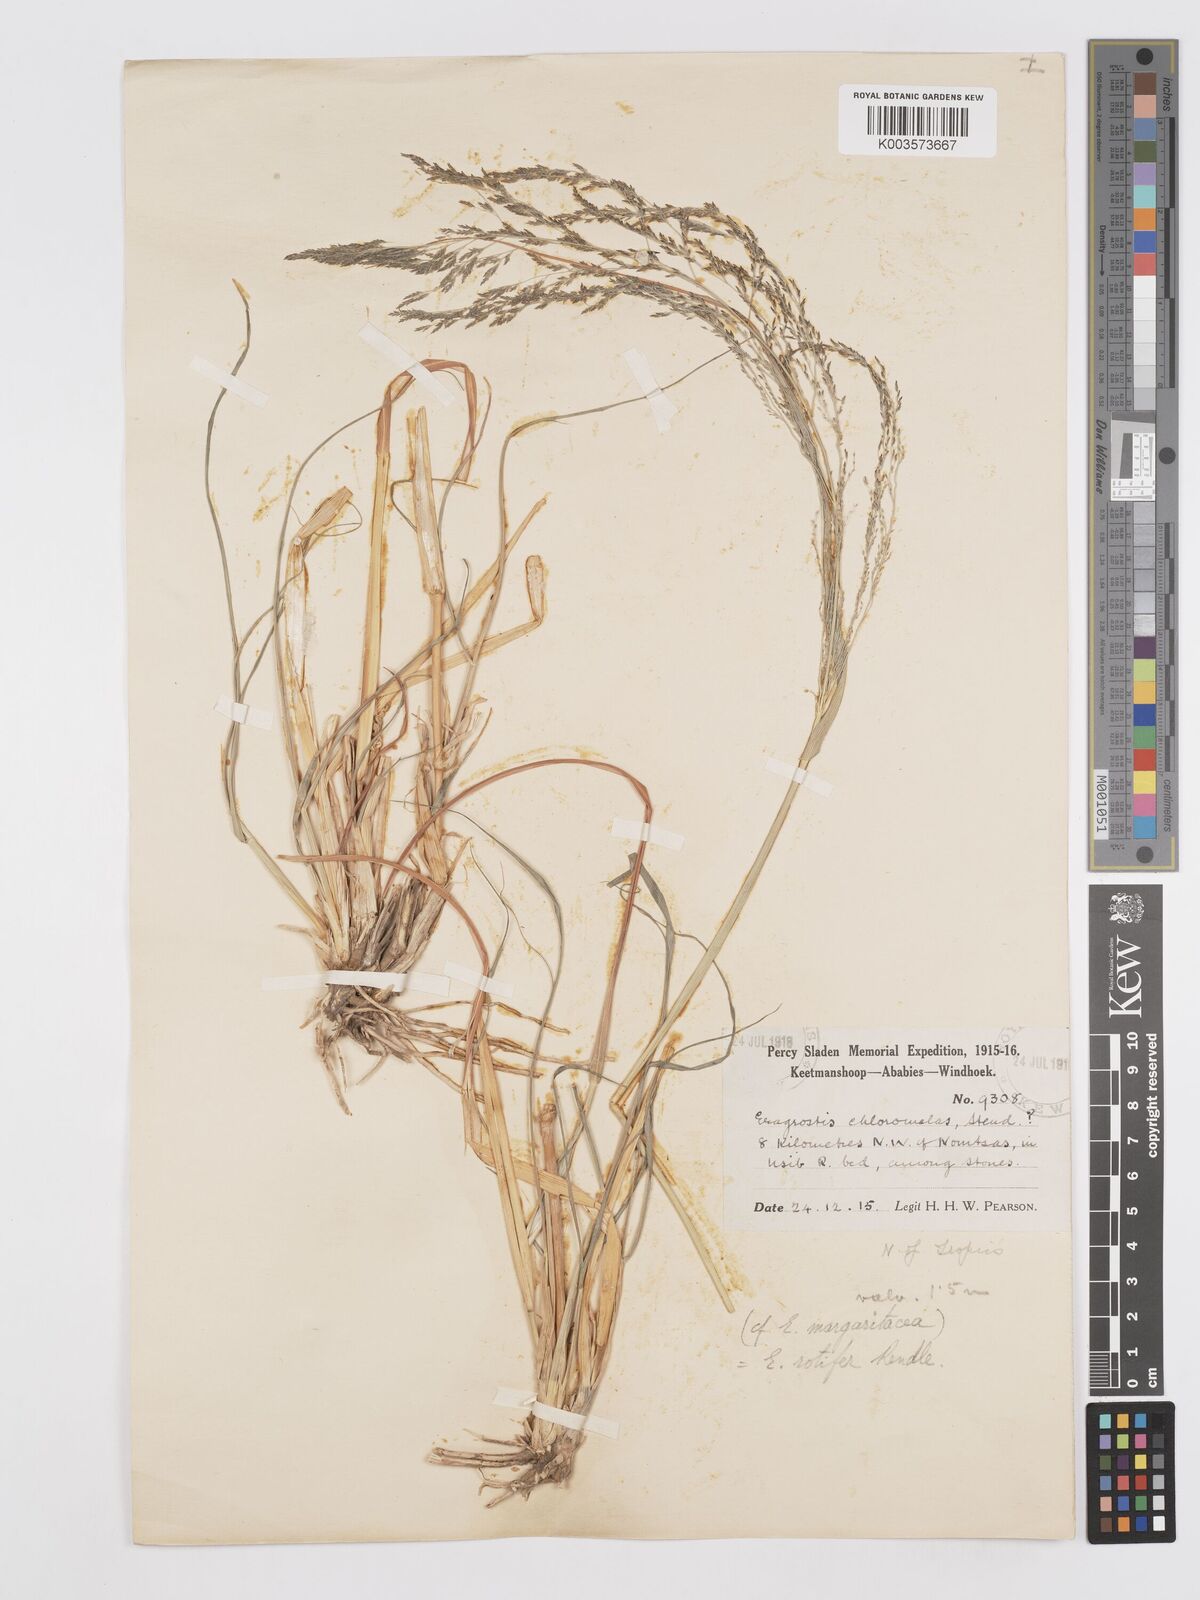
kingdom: Plantae
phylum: Tracheophyta
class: Liliopsida
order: Poales
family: Poaceae
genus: Eragrostis
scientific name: Eragrostis rotifer
